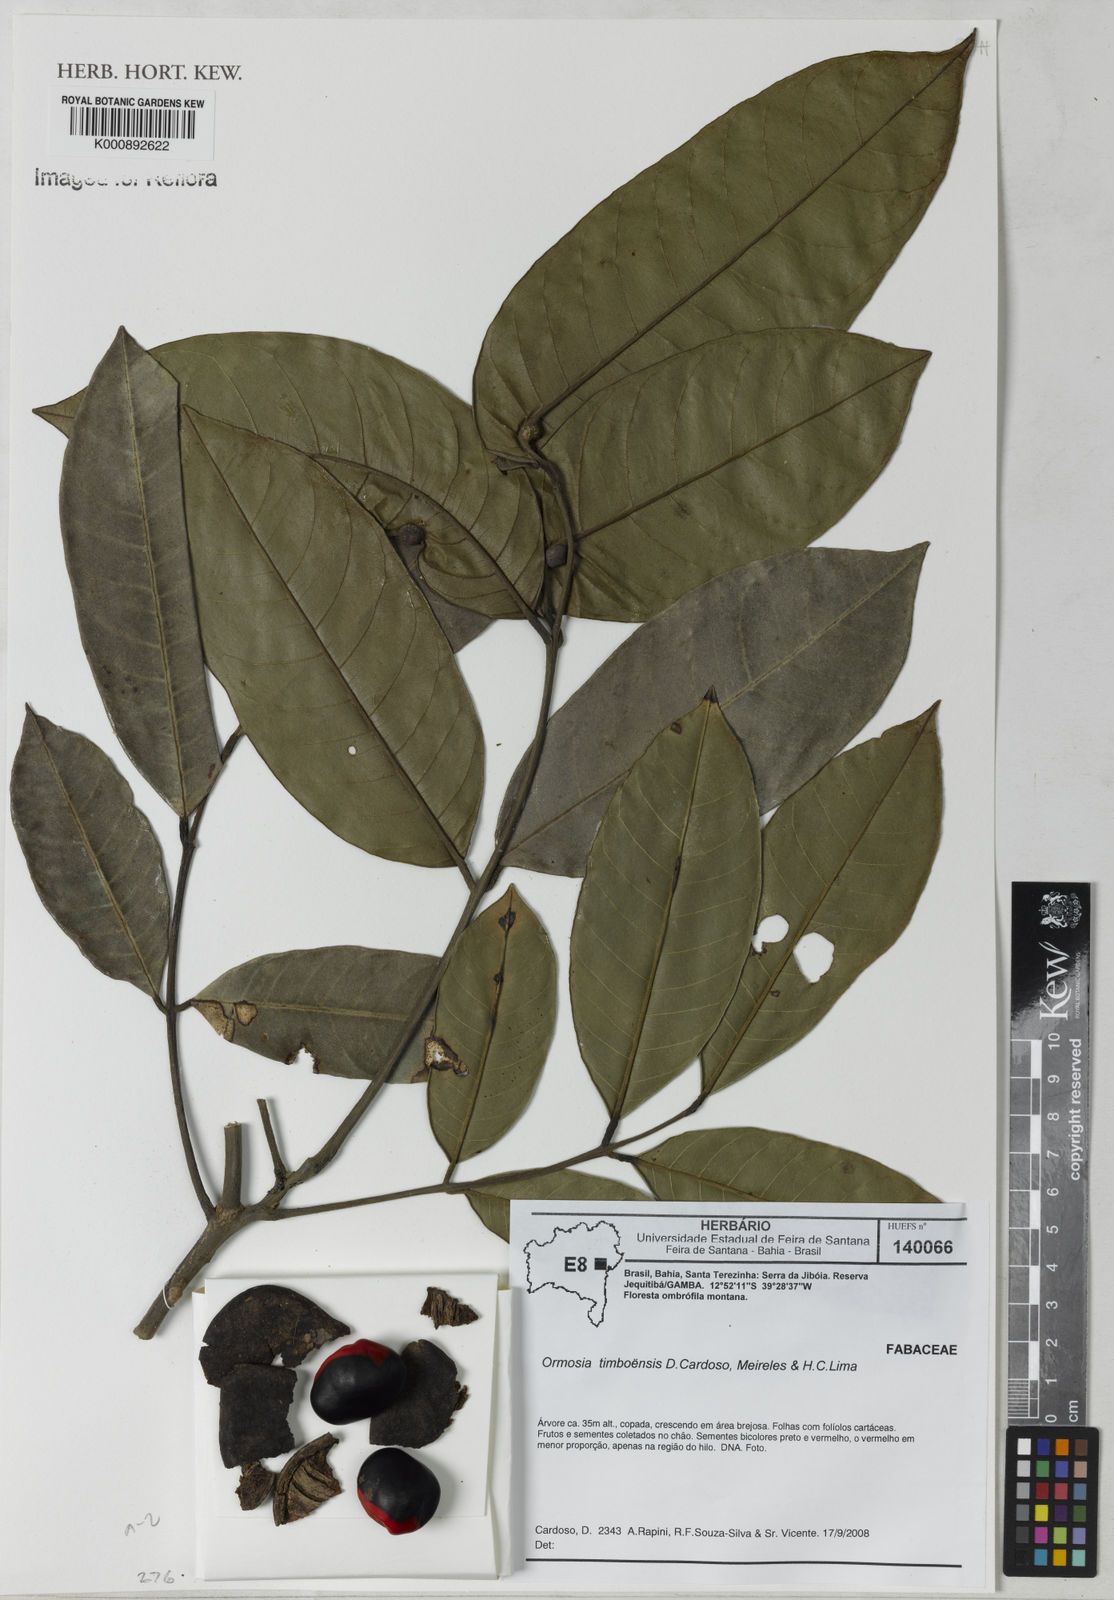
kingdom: Plantae
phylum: Tracheophyta
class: Magnoliopsida
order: Fabales
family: Fabaceae
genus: Ormosia
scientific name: Ormosia timboensis
